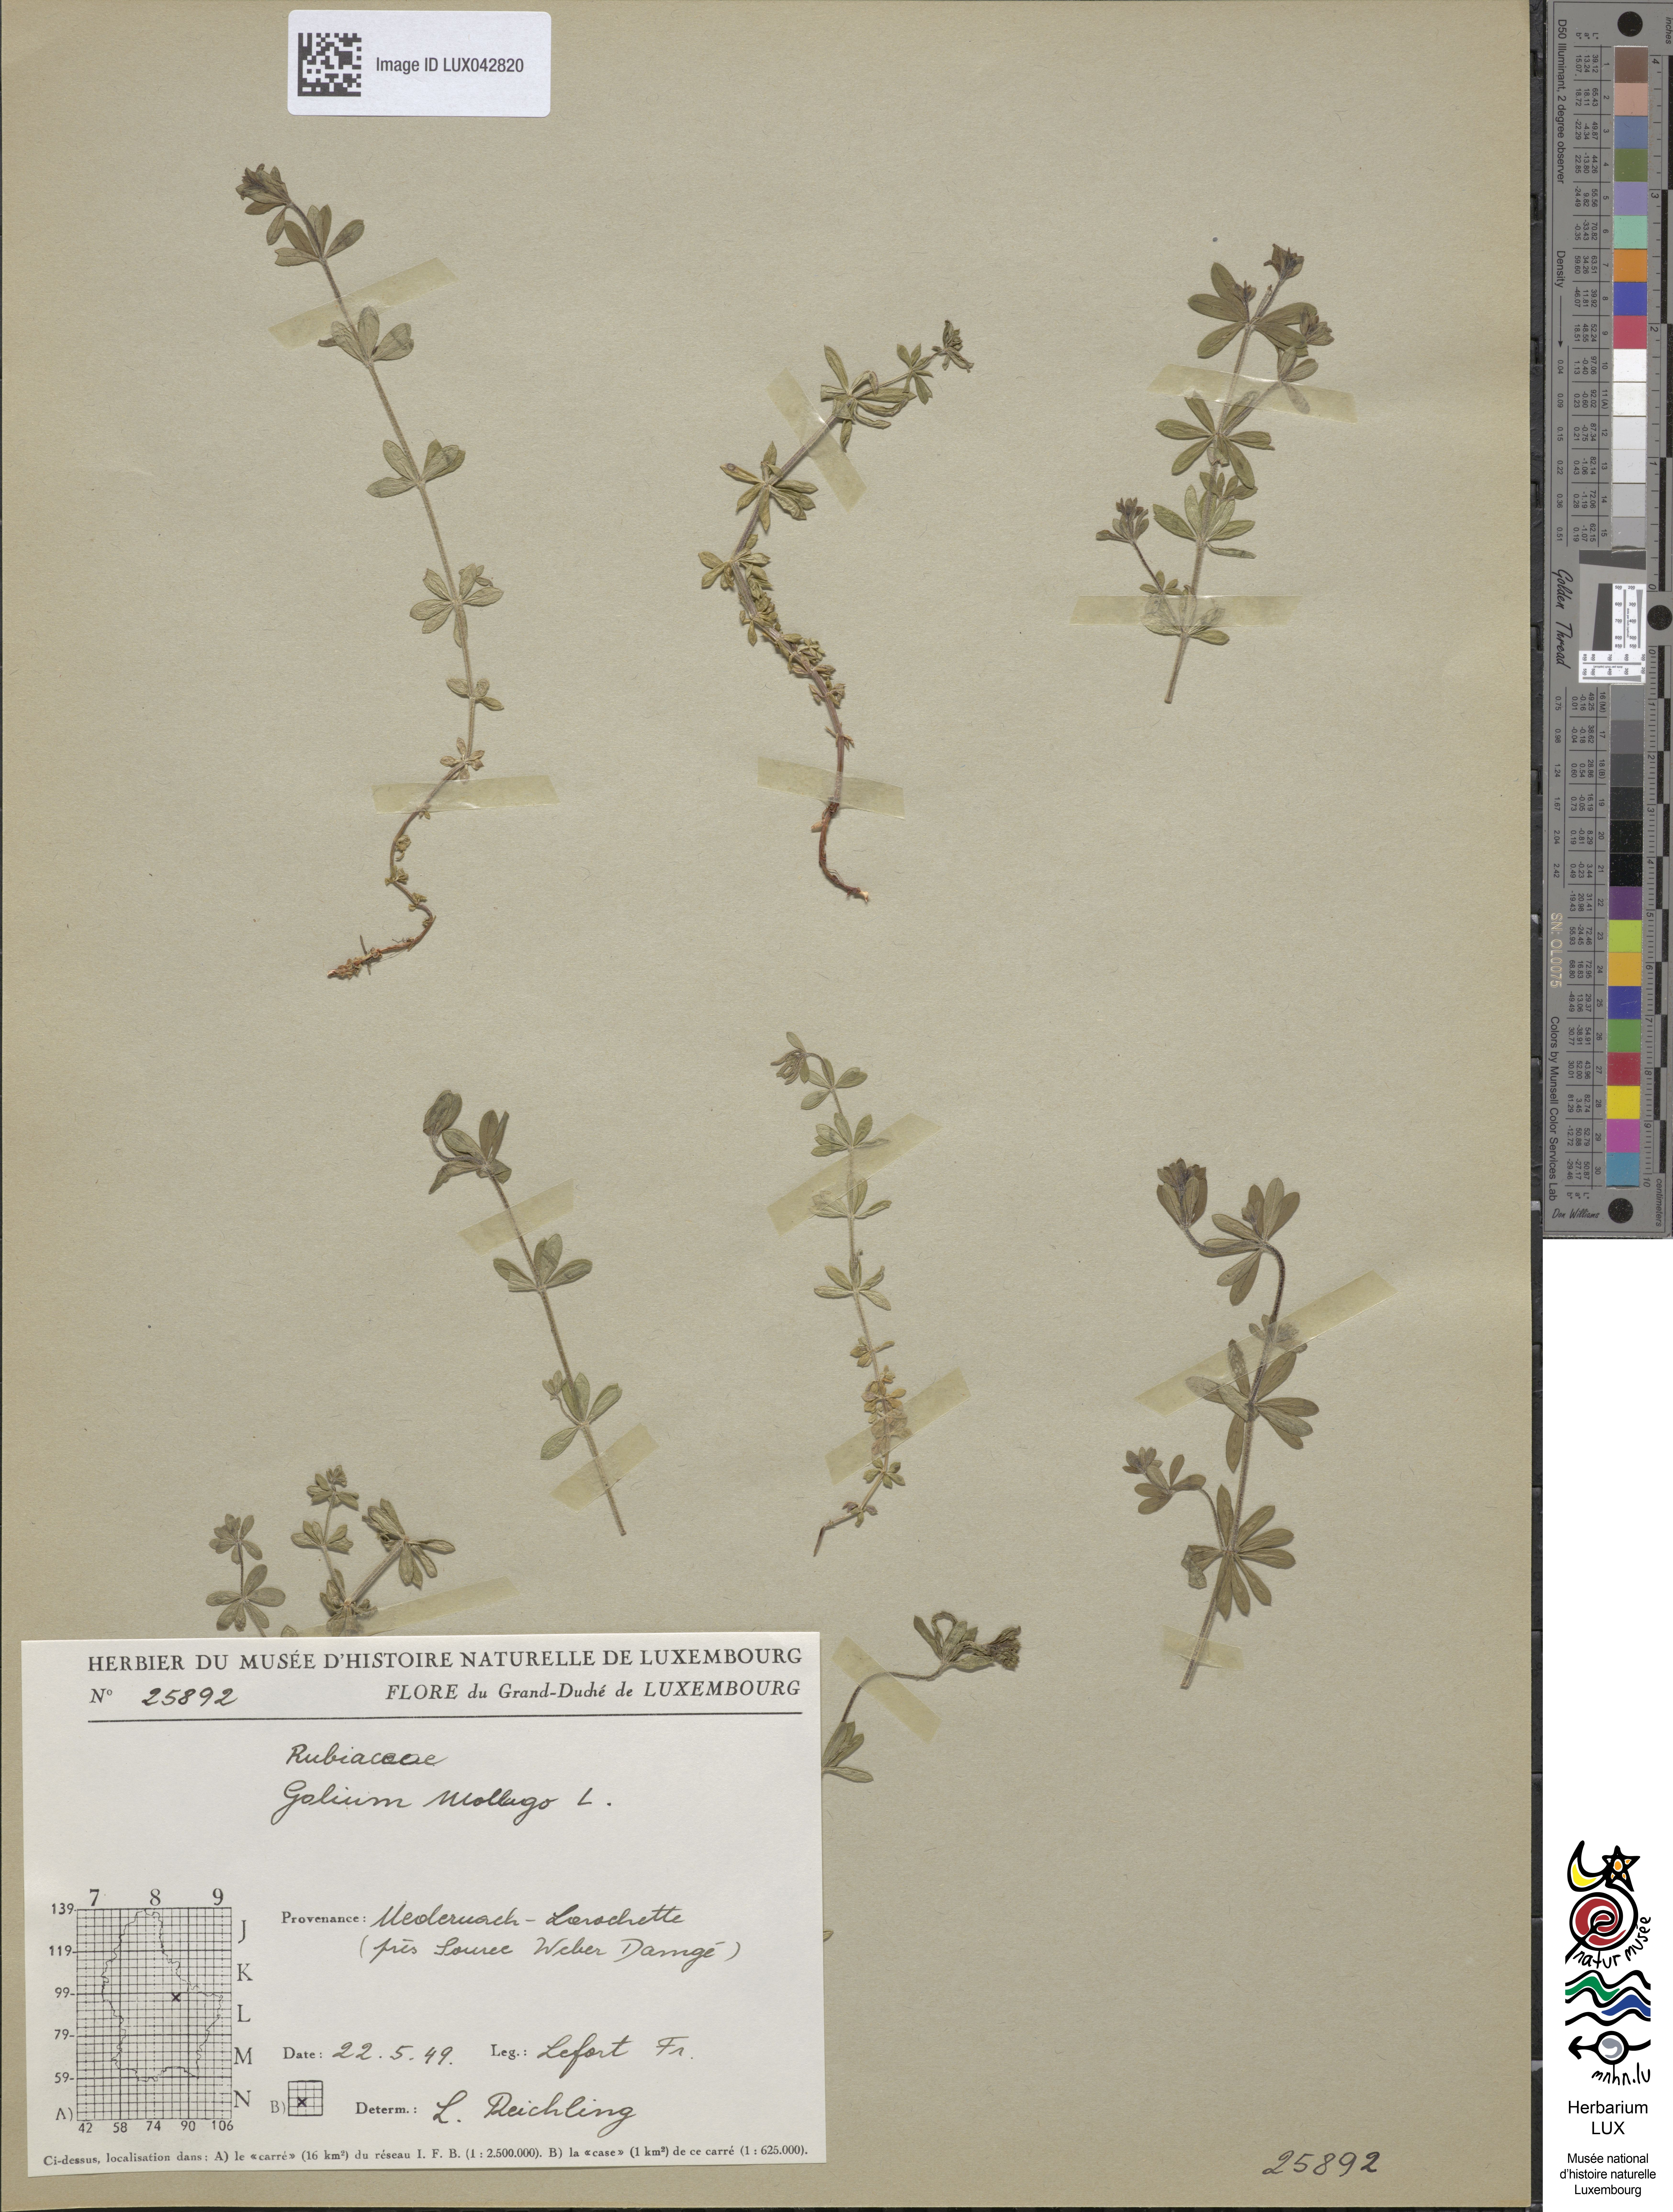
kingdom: Plantae
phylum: Tracheophyta
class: Magnoliopsida
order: Gentianales
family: Rubiaceae
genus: Galium
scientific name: Galium mollugo
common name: Hedge bedstraw
